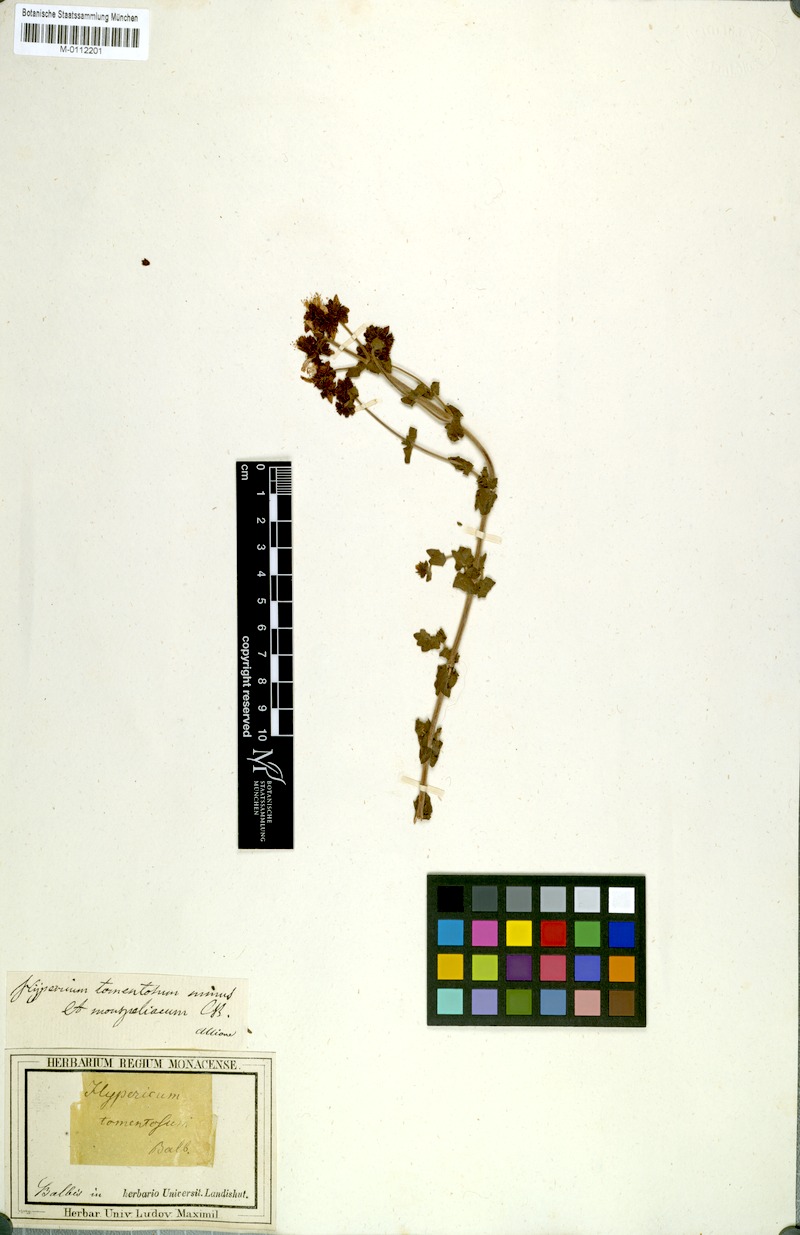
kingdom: Plantae
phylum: Tracheophyta
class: Magnoliopsida
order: Malpighiales
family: Hypericaceae
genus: Hypericum
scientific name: Hypericum tomentosum
